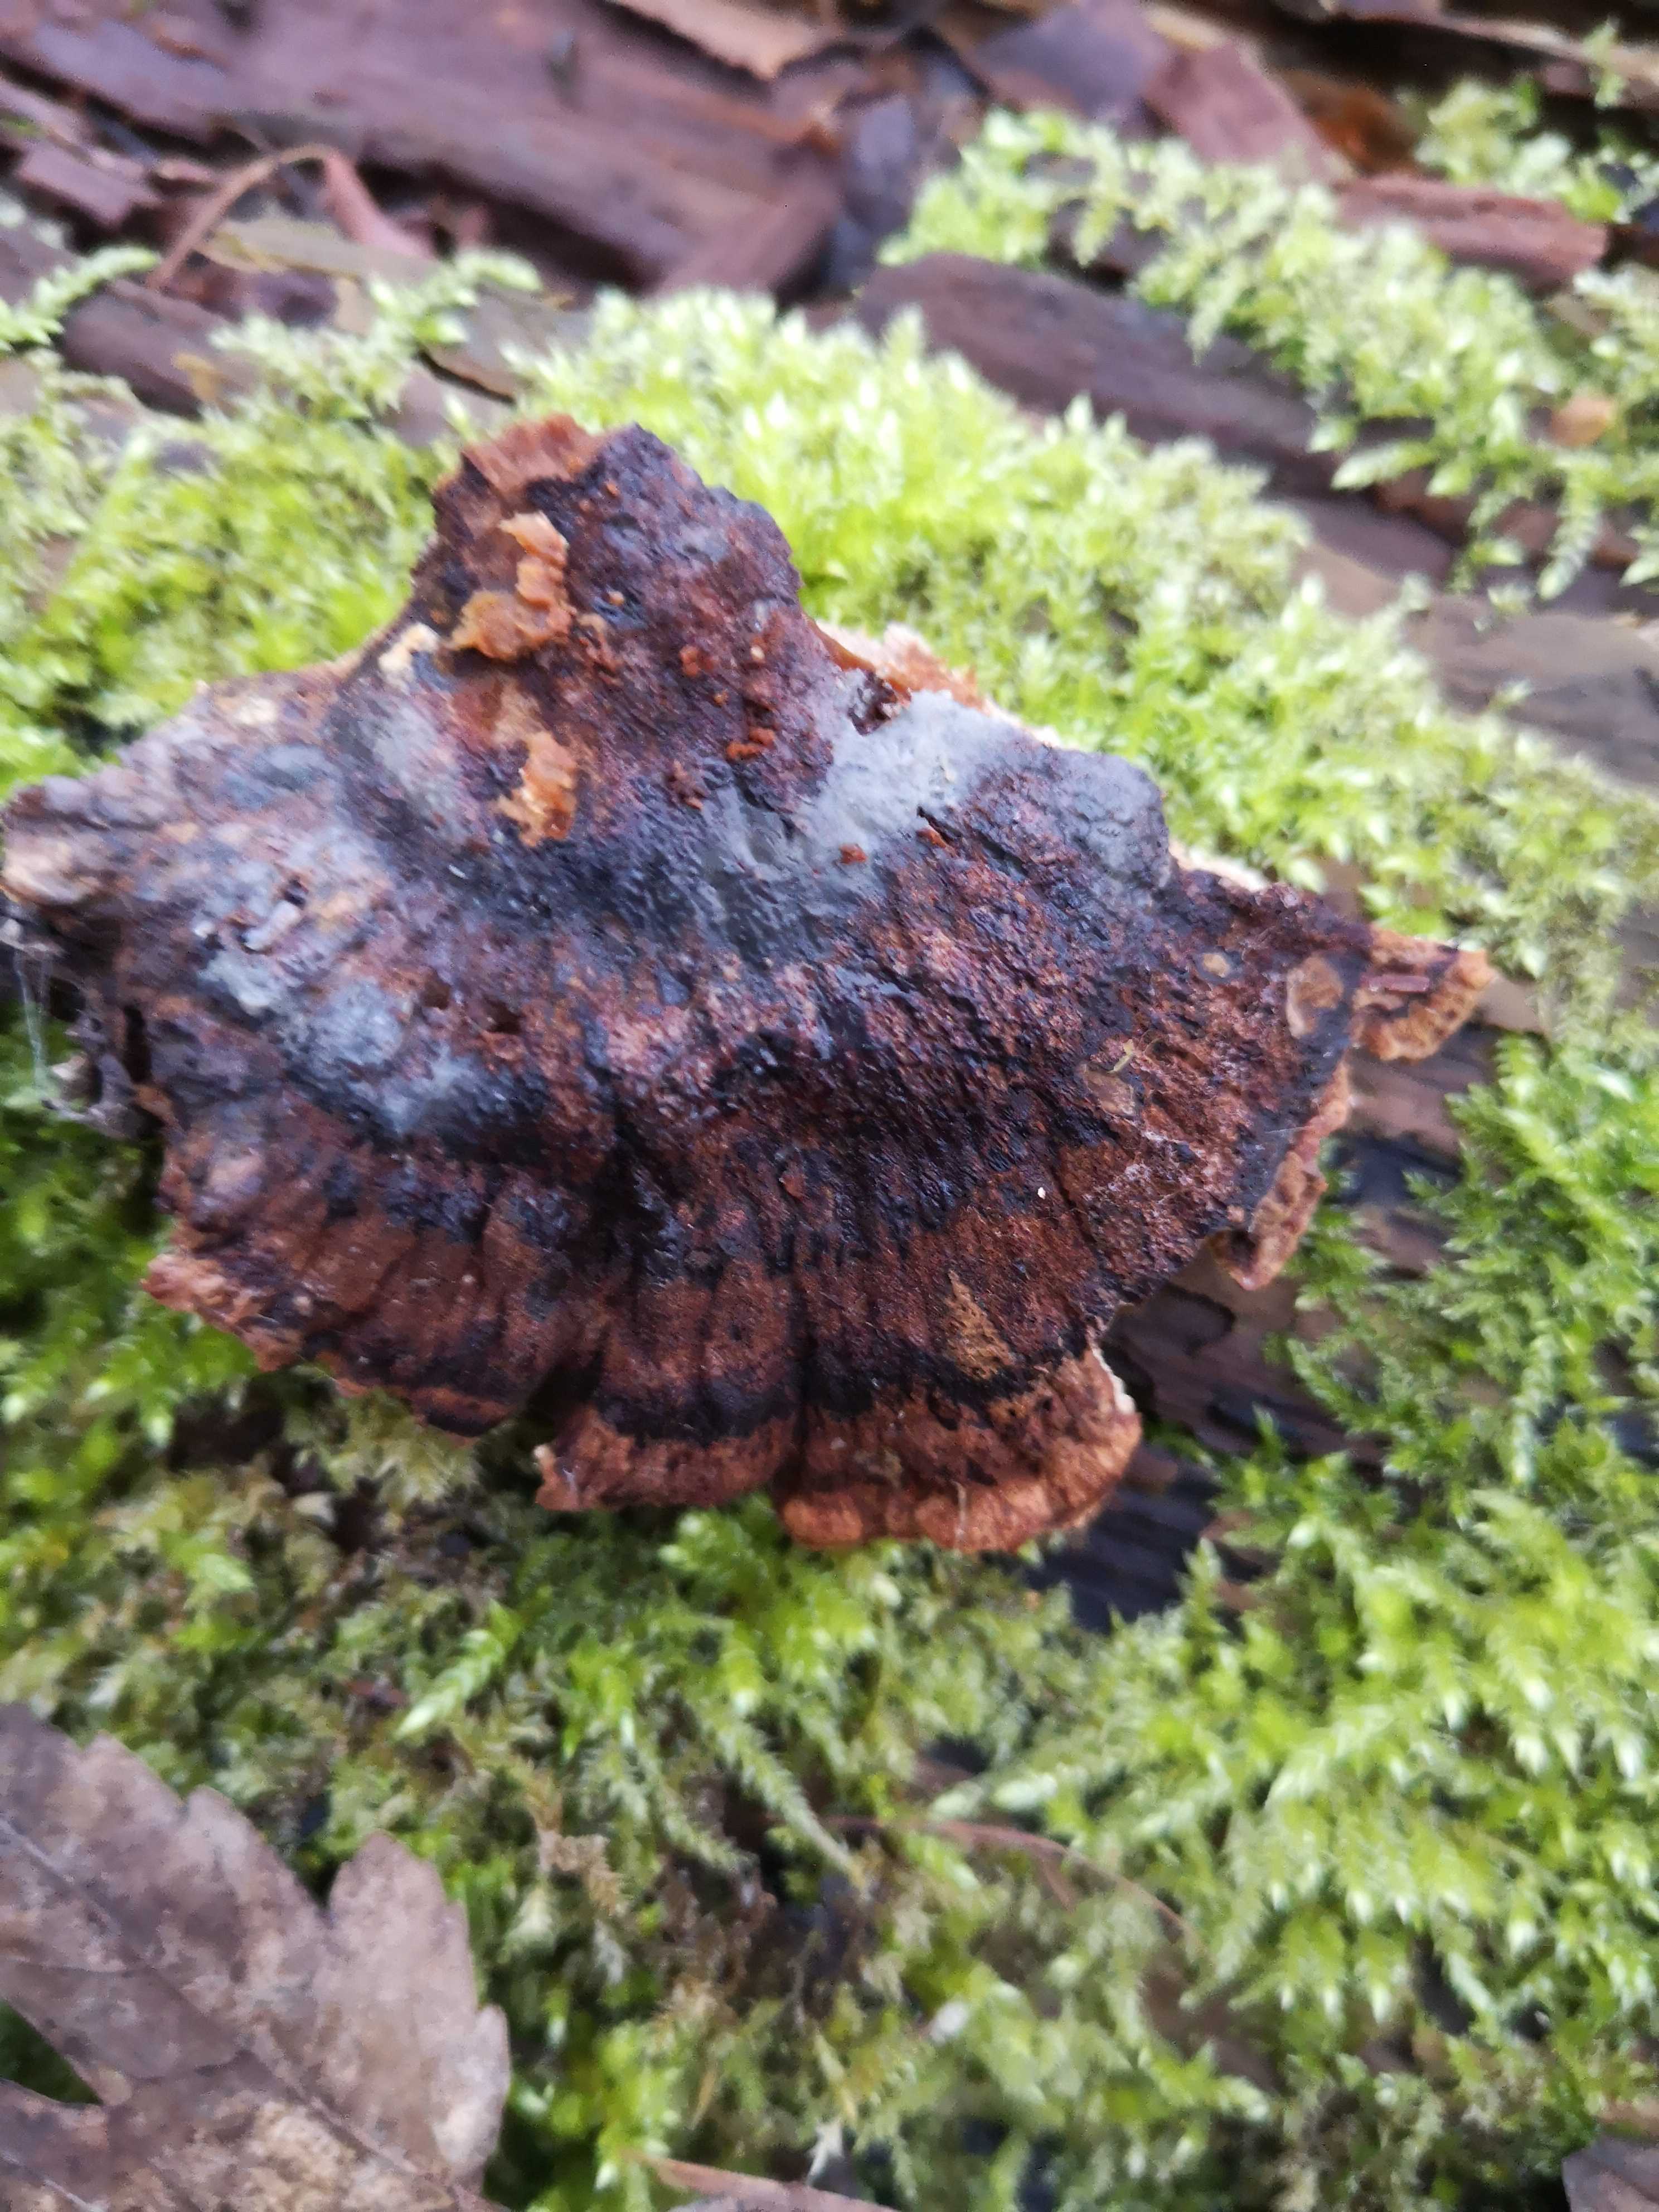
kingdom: Fungi
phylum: Basidiomycota
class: Agaricomycetes
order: Polyporales
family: Ischnodermataceae
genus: Ischnoderma
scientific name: Ischnoderma benzoinum
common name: gran-tjæreporesvamp
